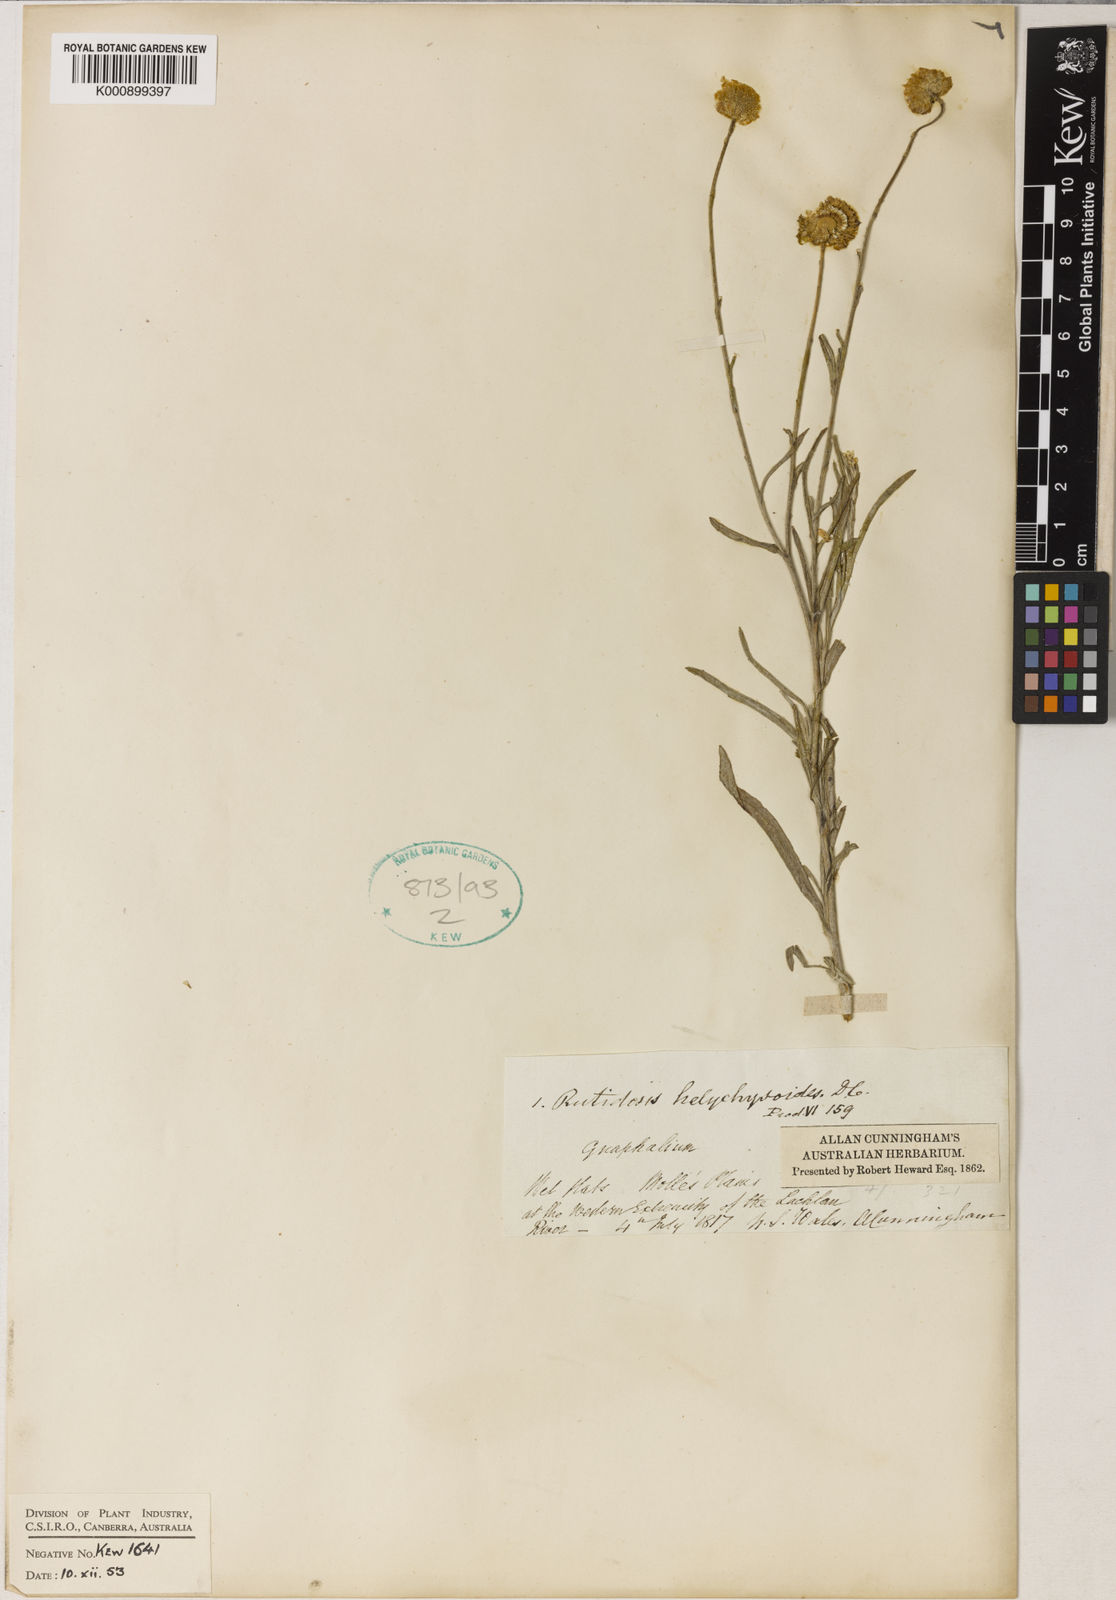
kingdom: Plantae
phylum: Tracheophyta
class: Magnoliopsida
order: Asterales
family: Asteraceae
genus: Rutidosis
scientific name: Rutidosis helichrysoides
